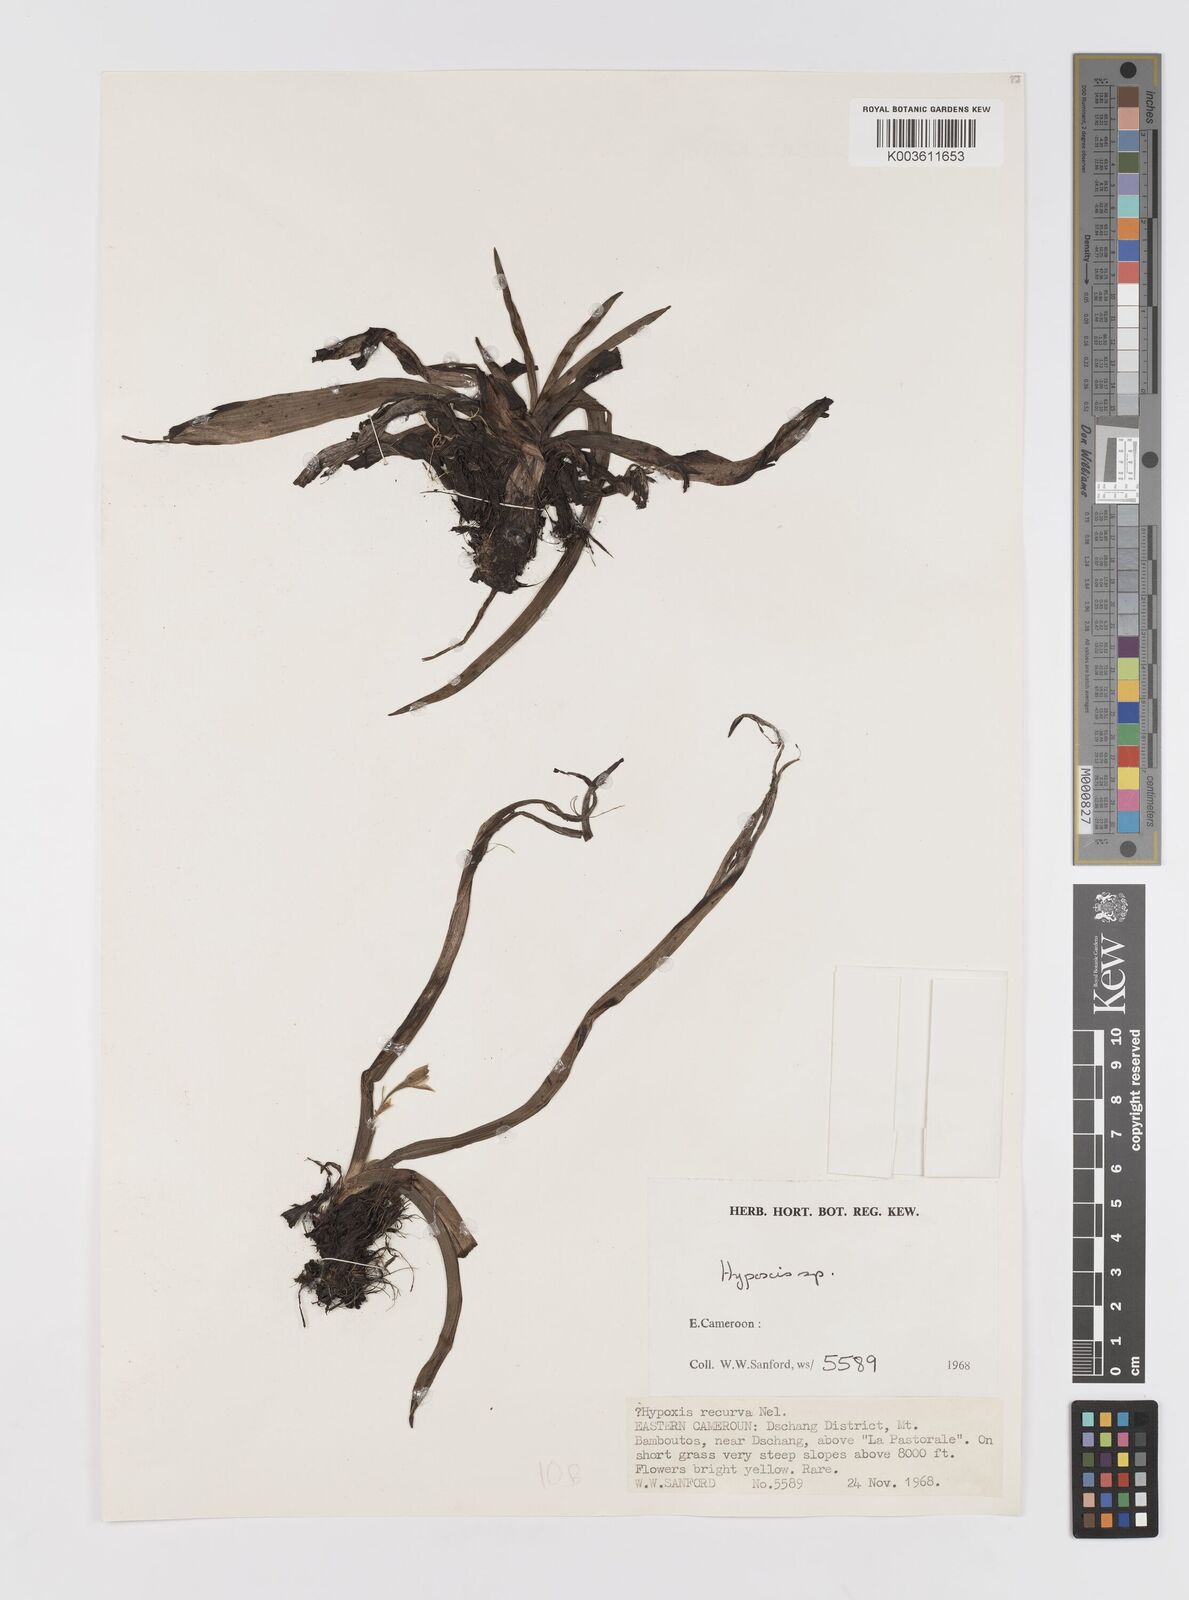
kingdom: Plantae
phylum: Tracheophyta
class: Liliopsida
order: Asparagales
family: Hypoxidaceae
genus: Hypoxis
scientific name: Hypoxis
